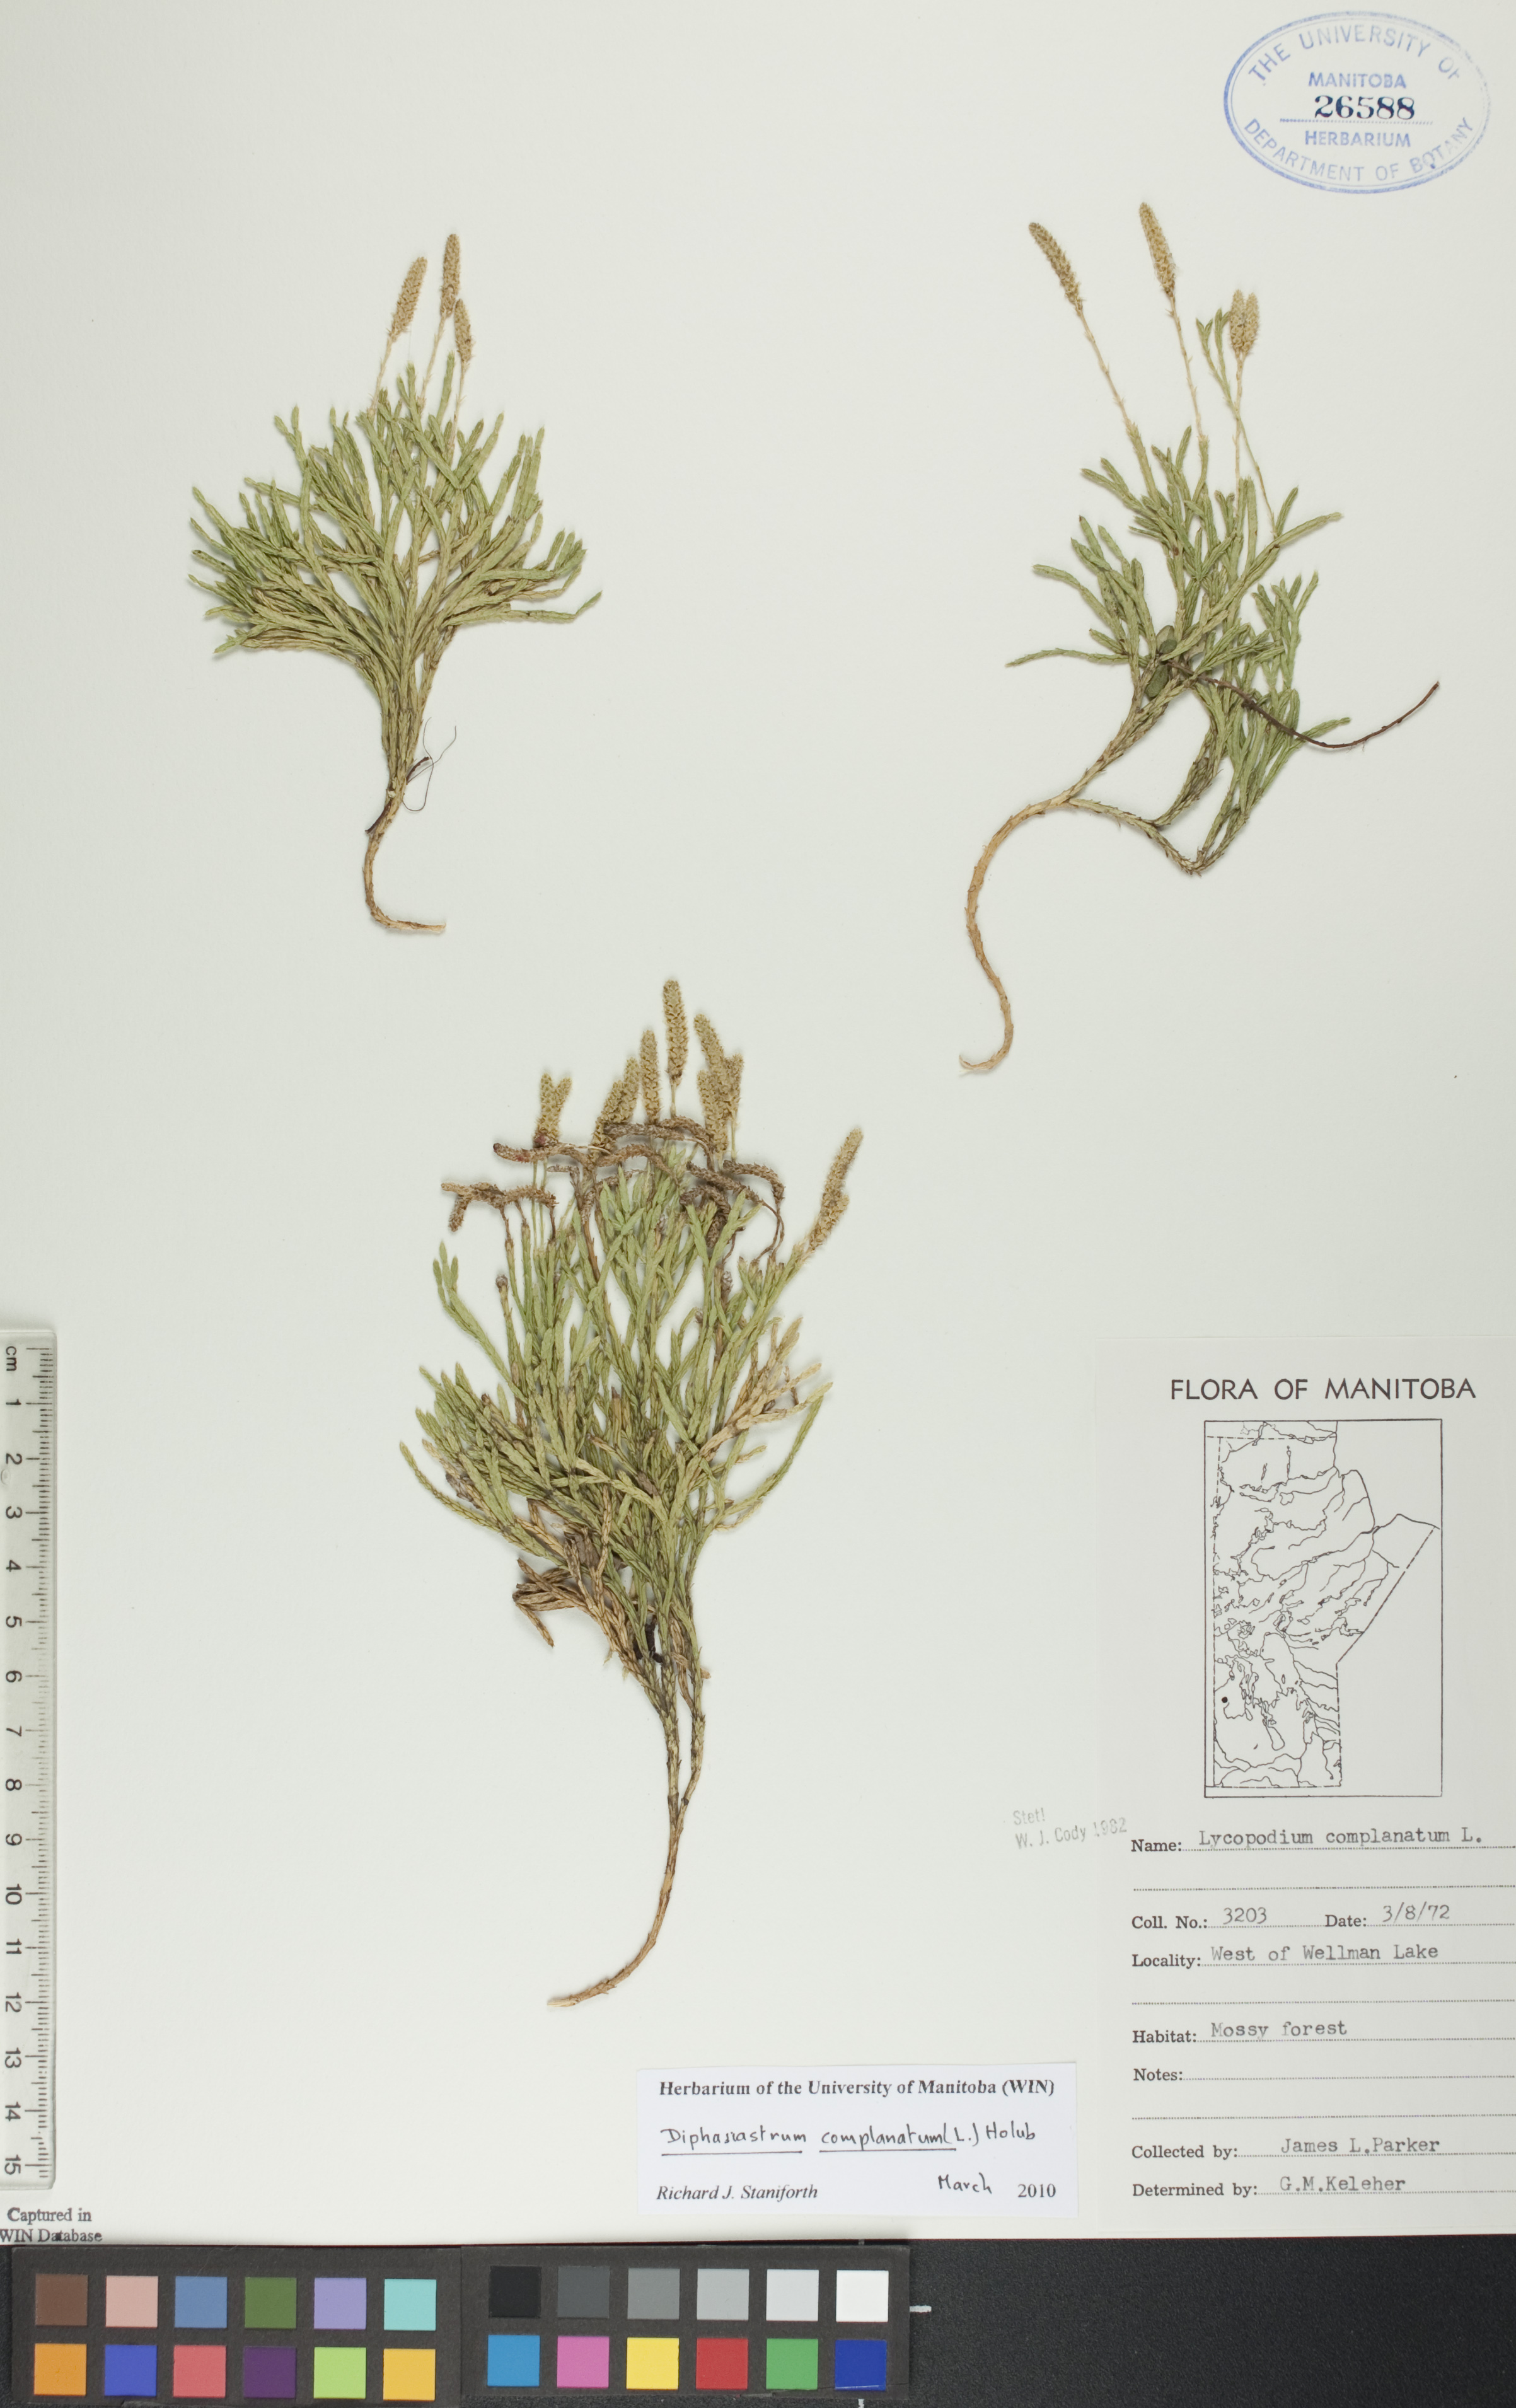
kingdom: Plantae
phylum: Tracheophyta
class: Lycopodiopsida
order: Lycopodiales
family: Lycopodiaceae
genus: Diphasiastrum
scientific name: Diphasiastrum complanatum
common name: Northern running-pine
